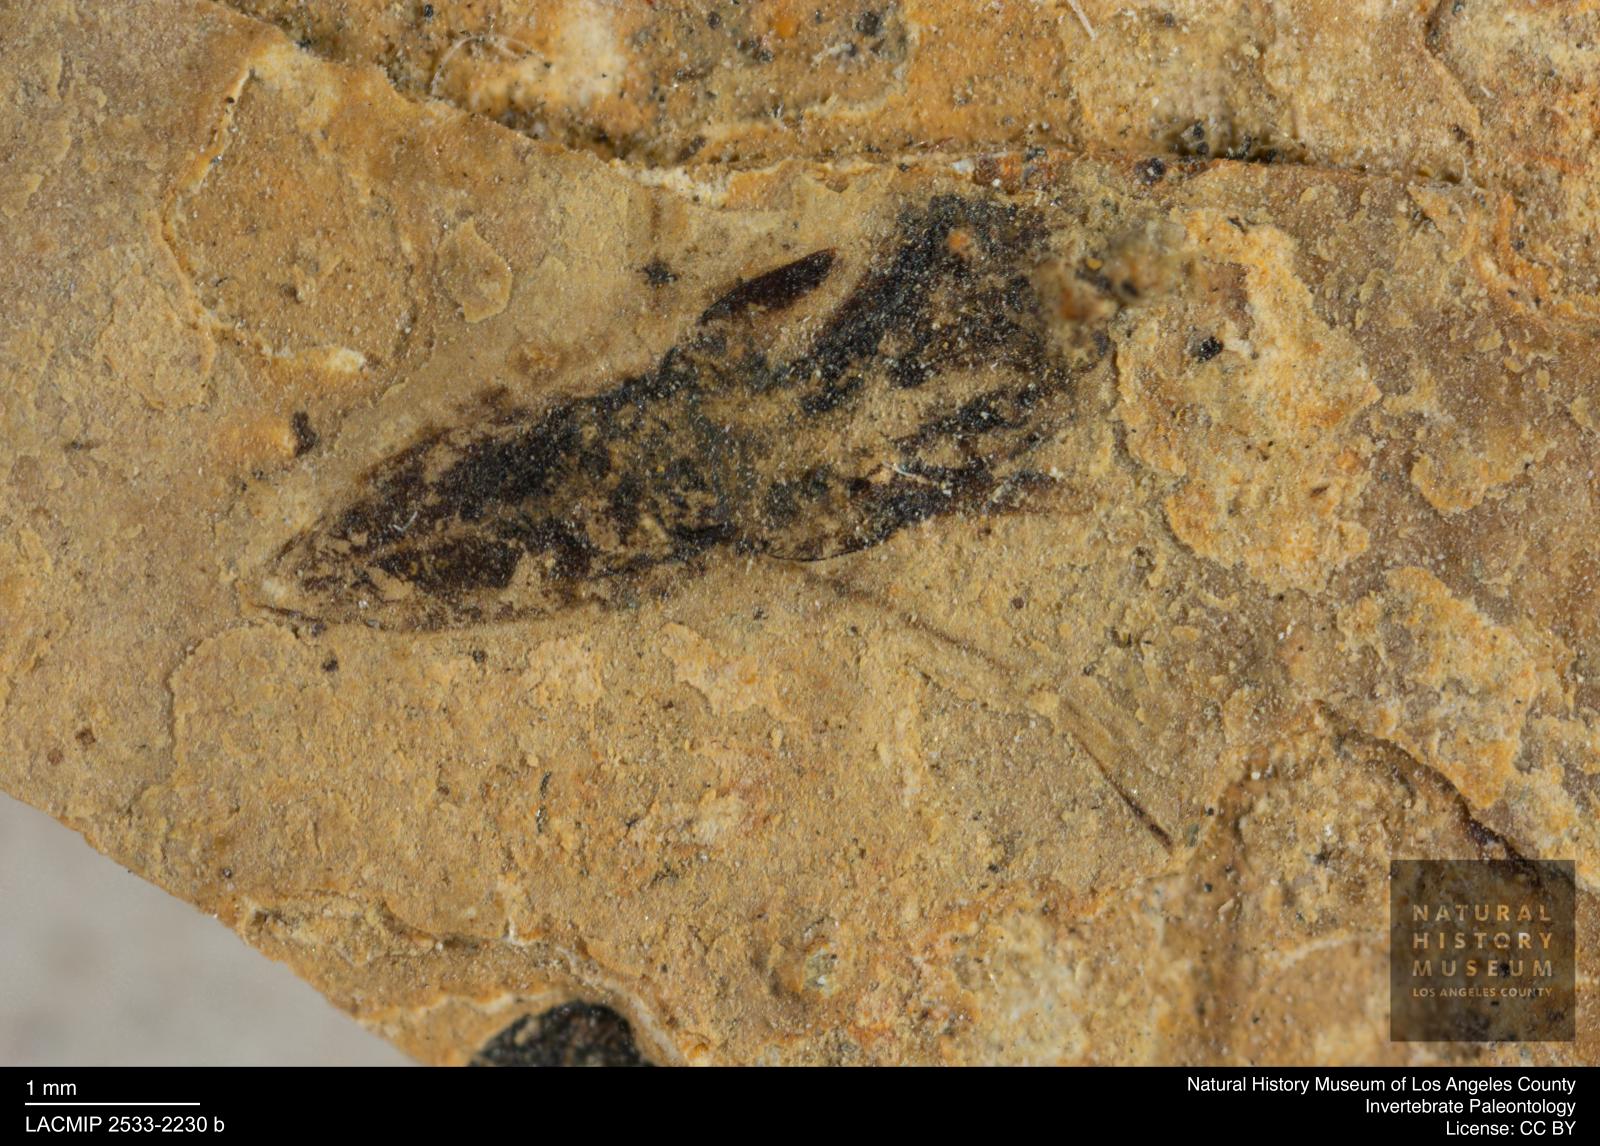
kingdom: Animalia
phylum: Arthropoda
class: Insecta
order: Diptera
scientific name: Diptera
